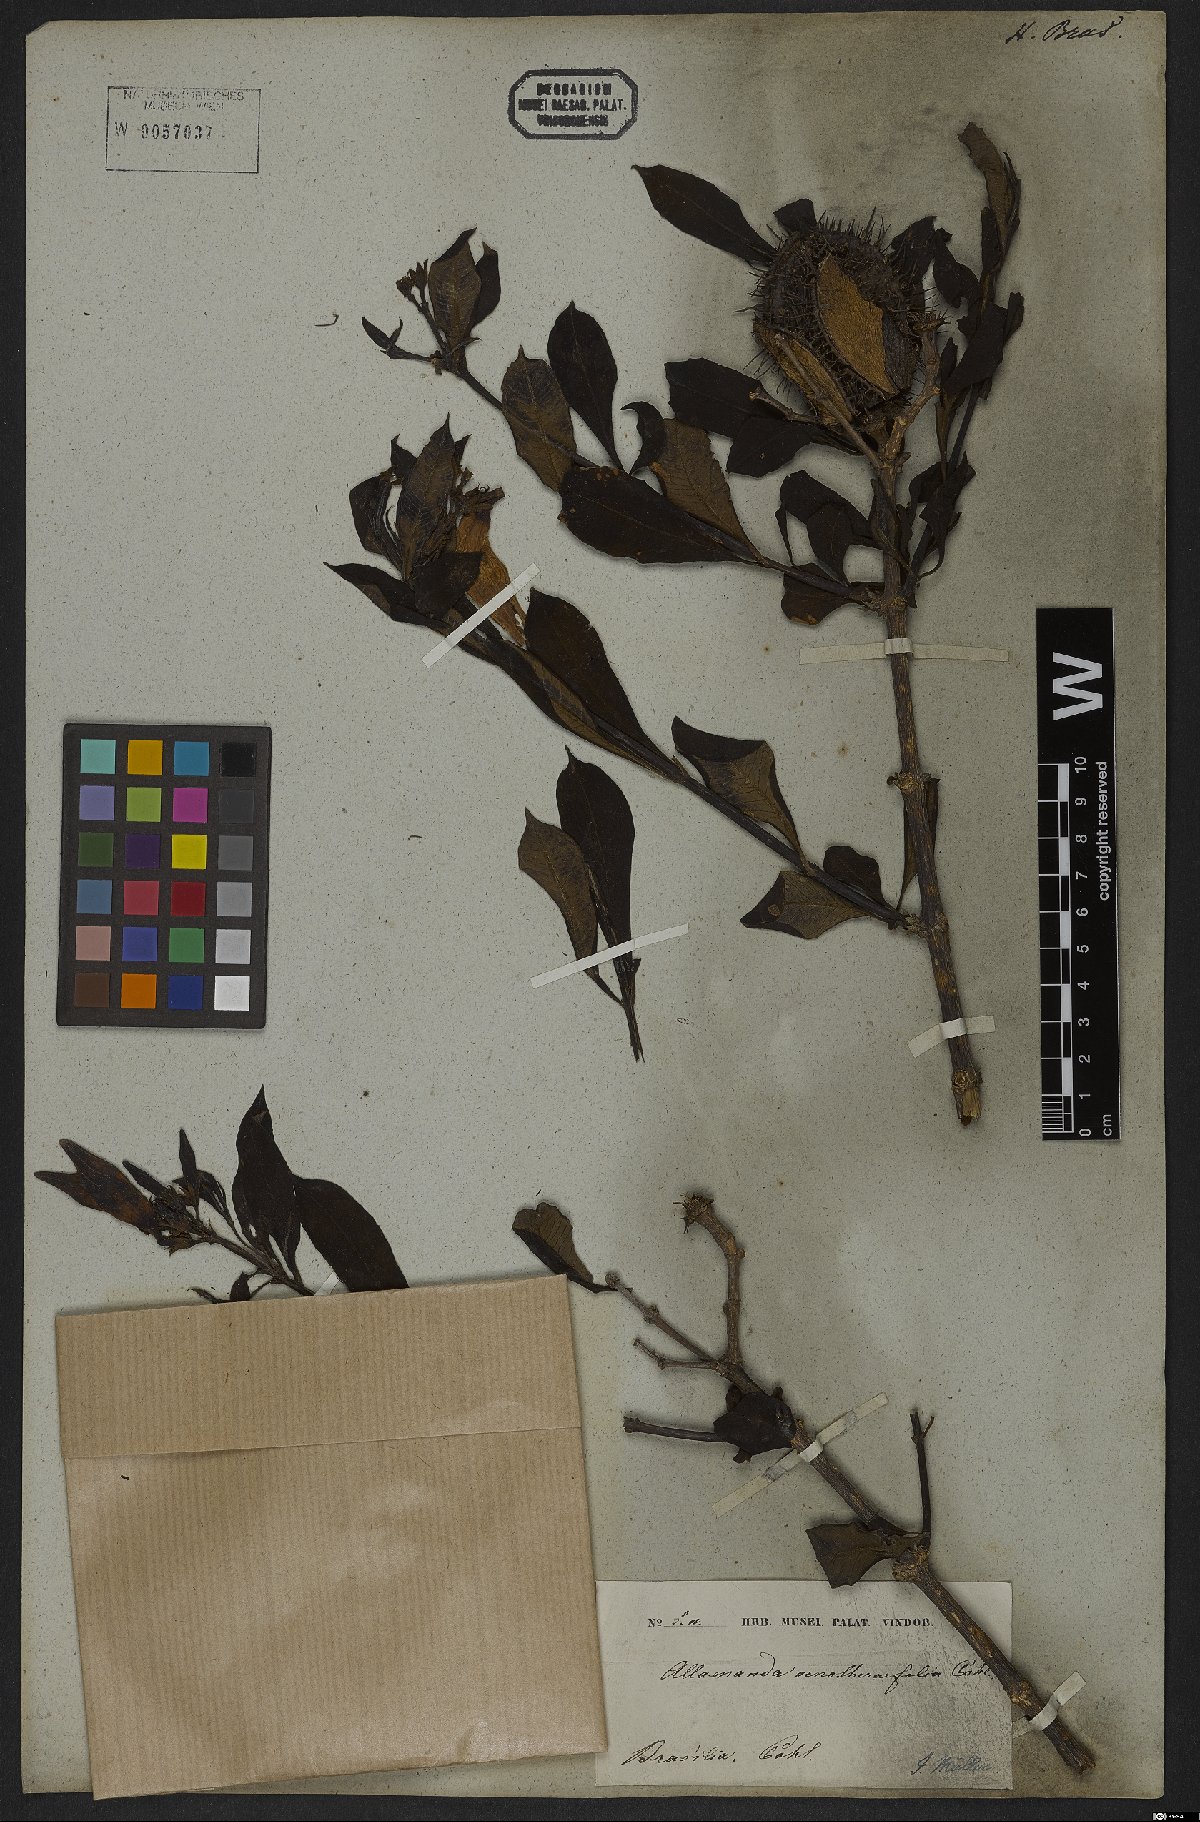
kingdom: Plantae
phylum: Tracheophyta
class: Magnoliopsida
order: Gentianales
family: Apocynaceae
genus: Allamanda
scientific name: Allamanda oenotherifolia
